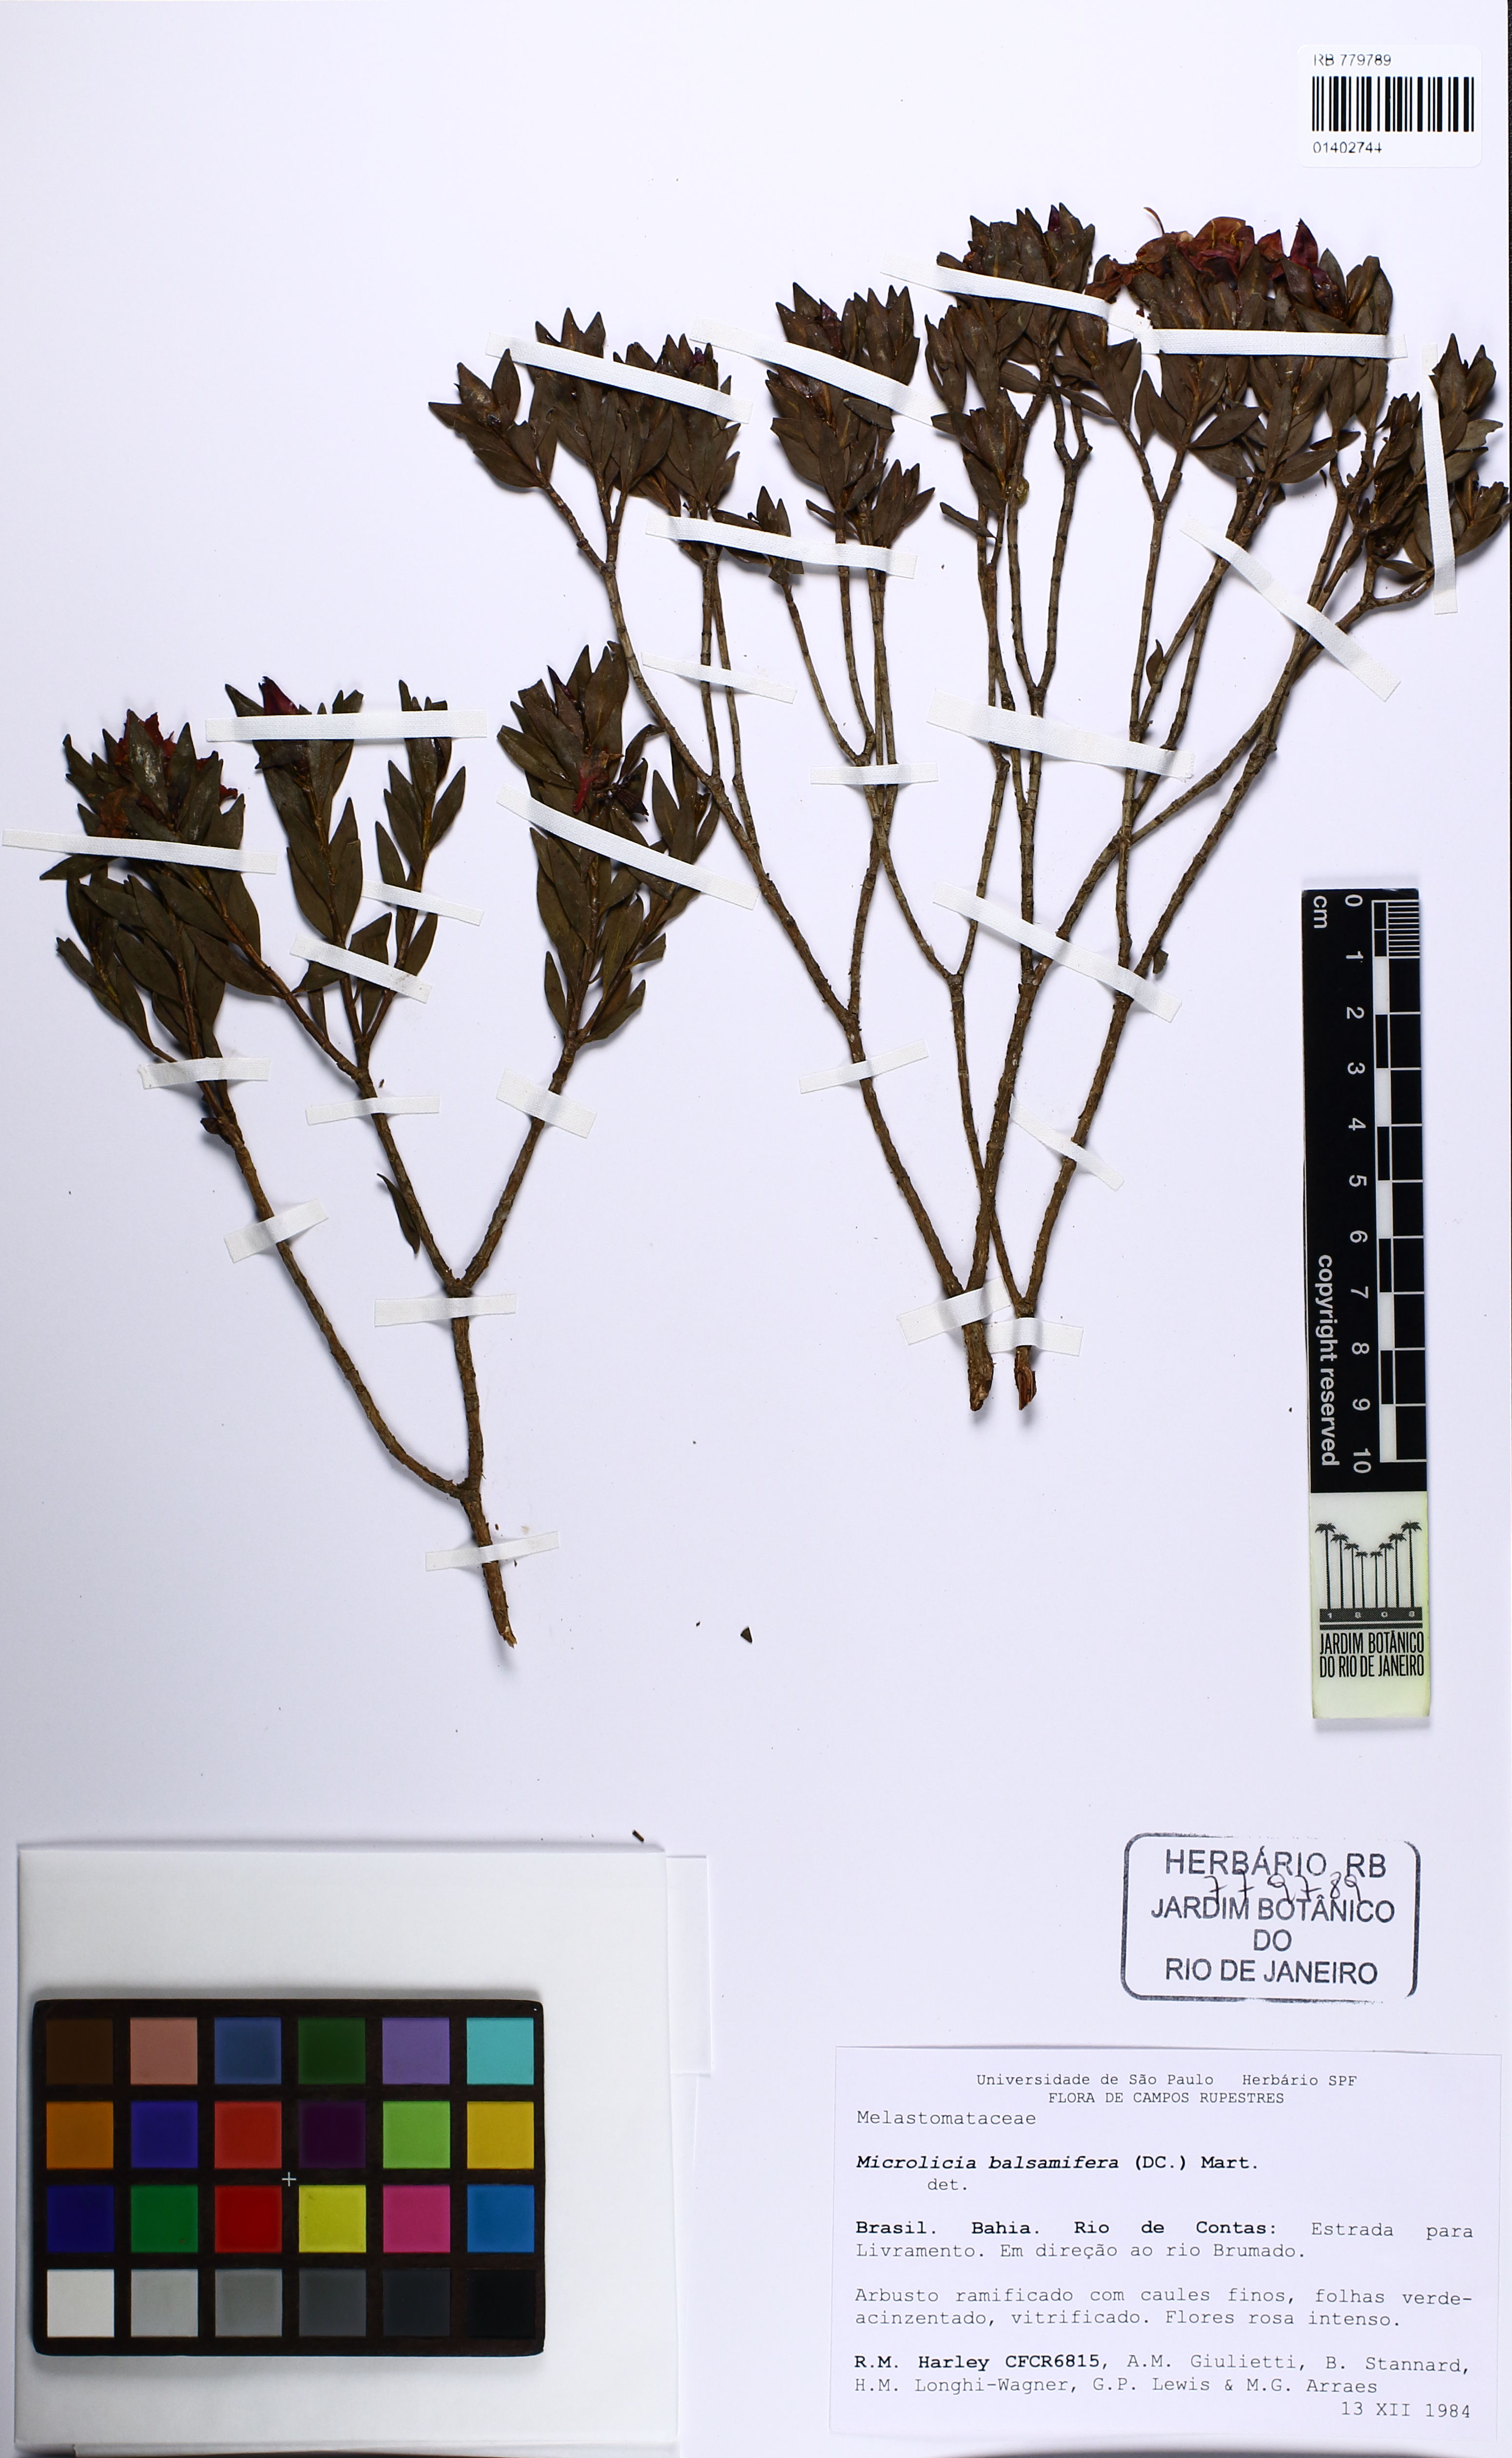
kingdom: Plantae
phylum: Tracheophyta
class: Magnoliopsida
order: Myrtales
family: Melastomataceae
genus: Microlicia
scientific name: Microlicia balsamifera
